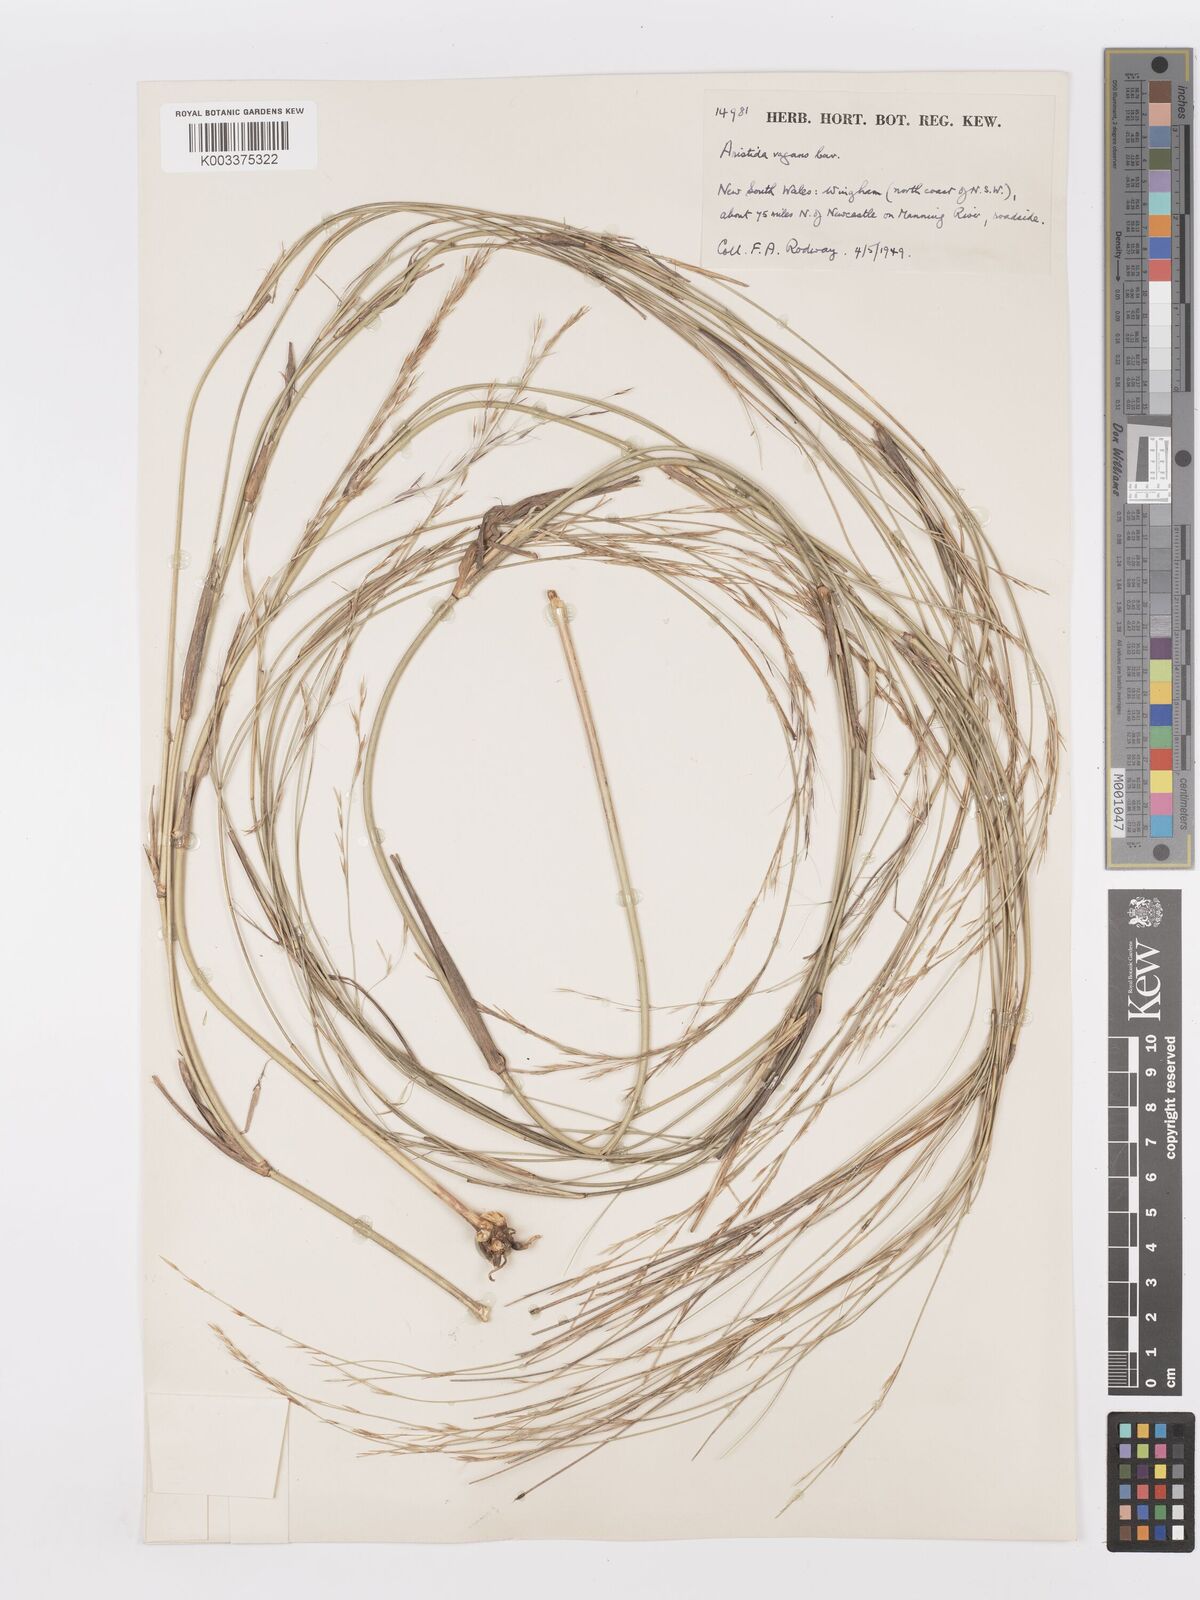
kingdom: Plantae
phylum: Tracheophyta
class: Liliopsida
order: Poales
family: Poaceae
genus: Aristida
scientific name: Aristida vagans
